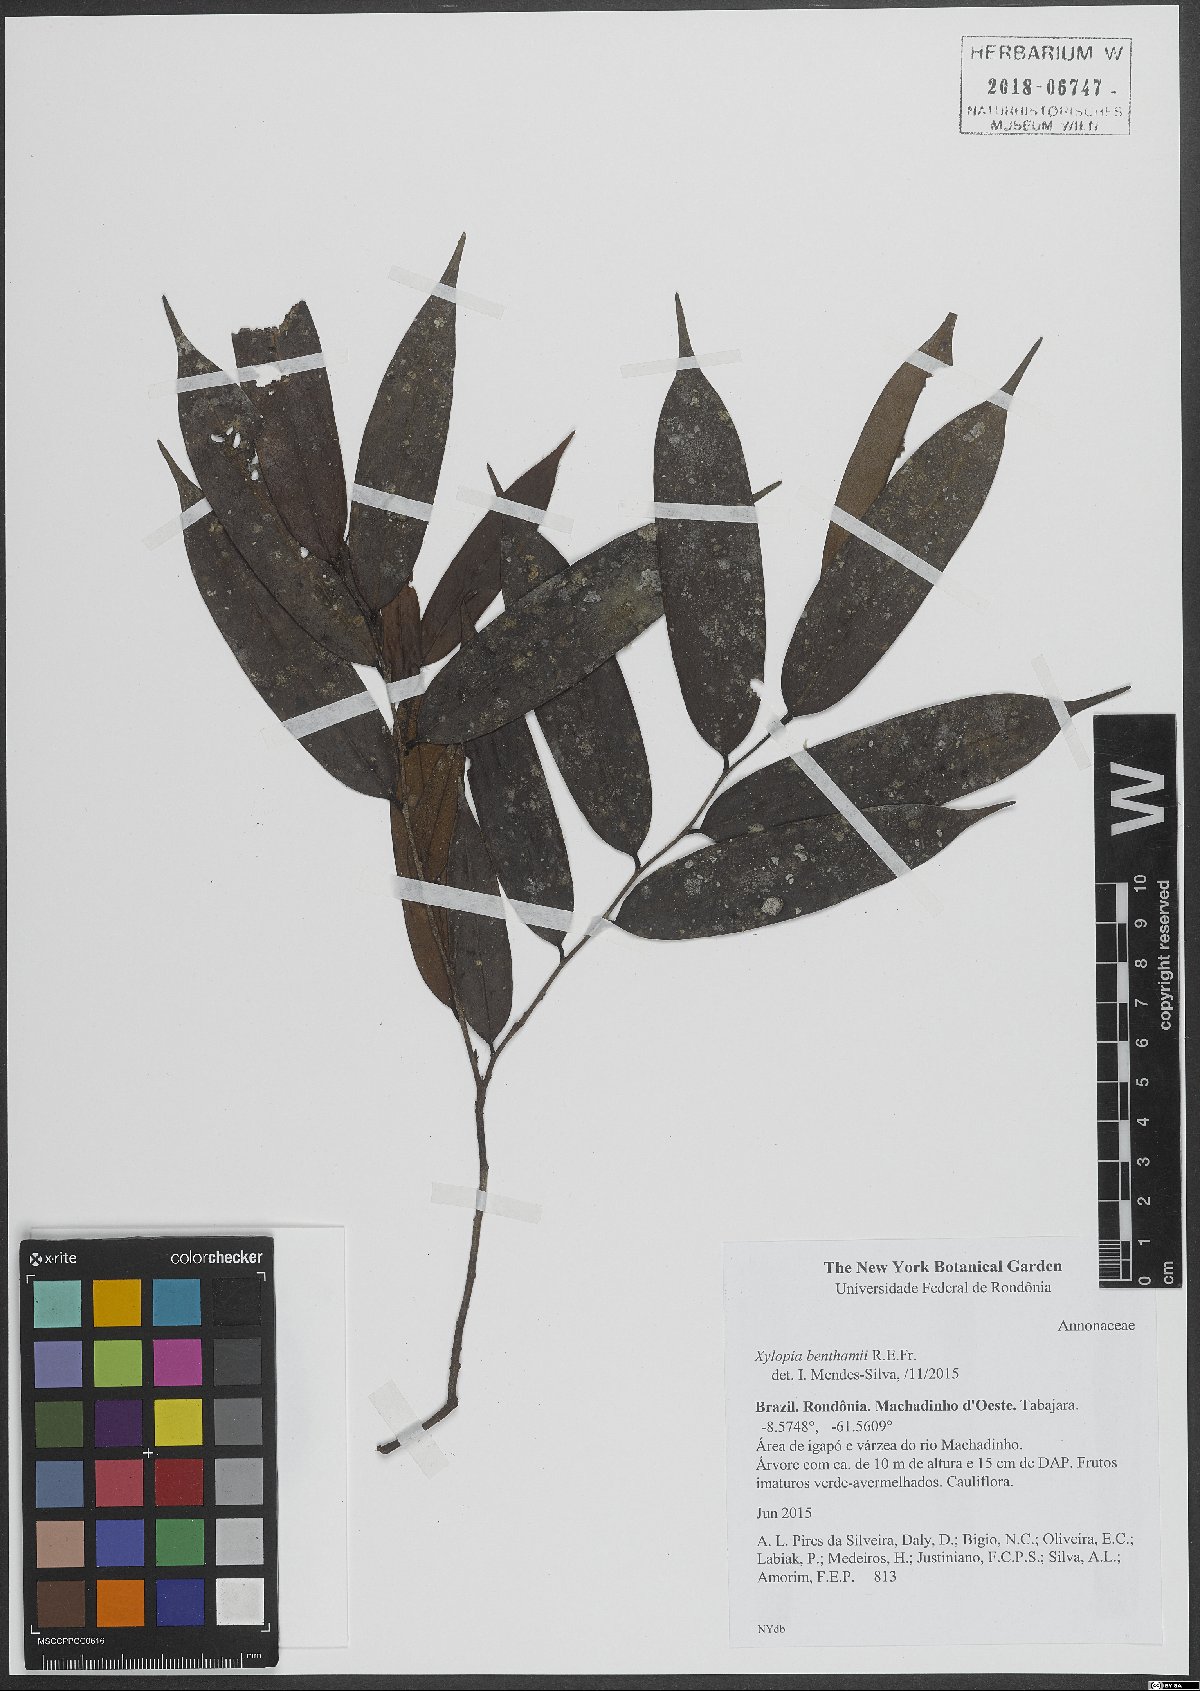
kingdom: Plantae
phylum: Tracheophyta
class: Magnoliopsida
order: Magnoliales
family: Annonaceae
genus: Xylopia
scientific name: Xylopia benthamii
